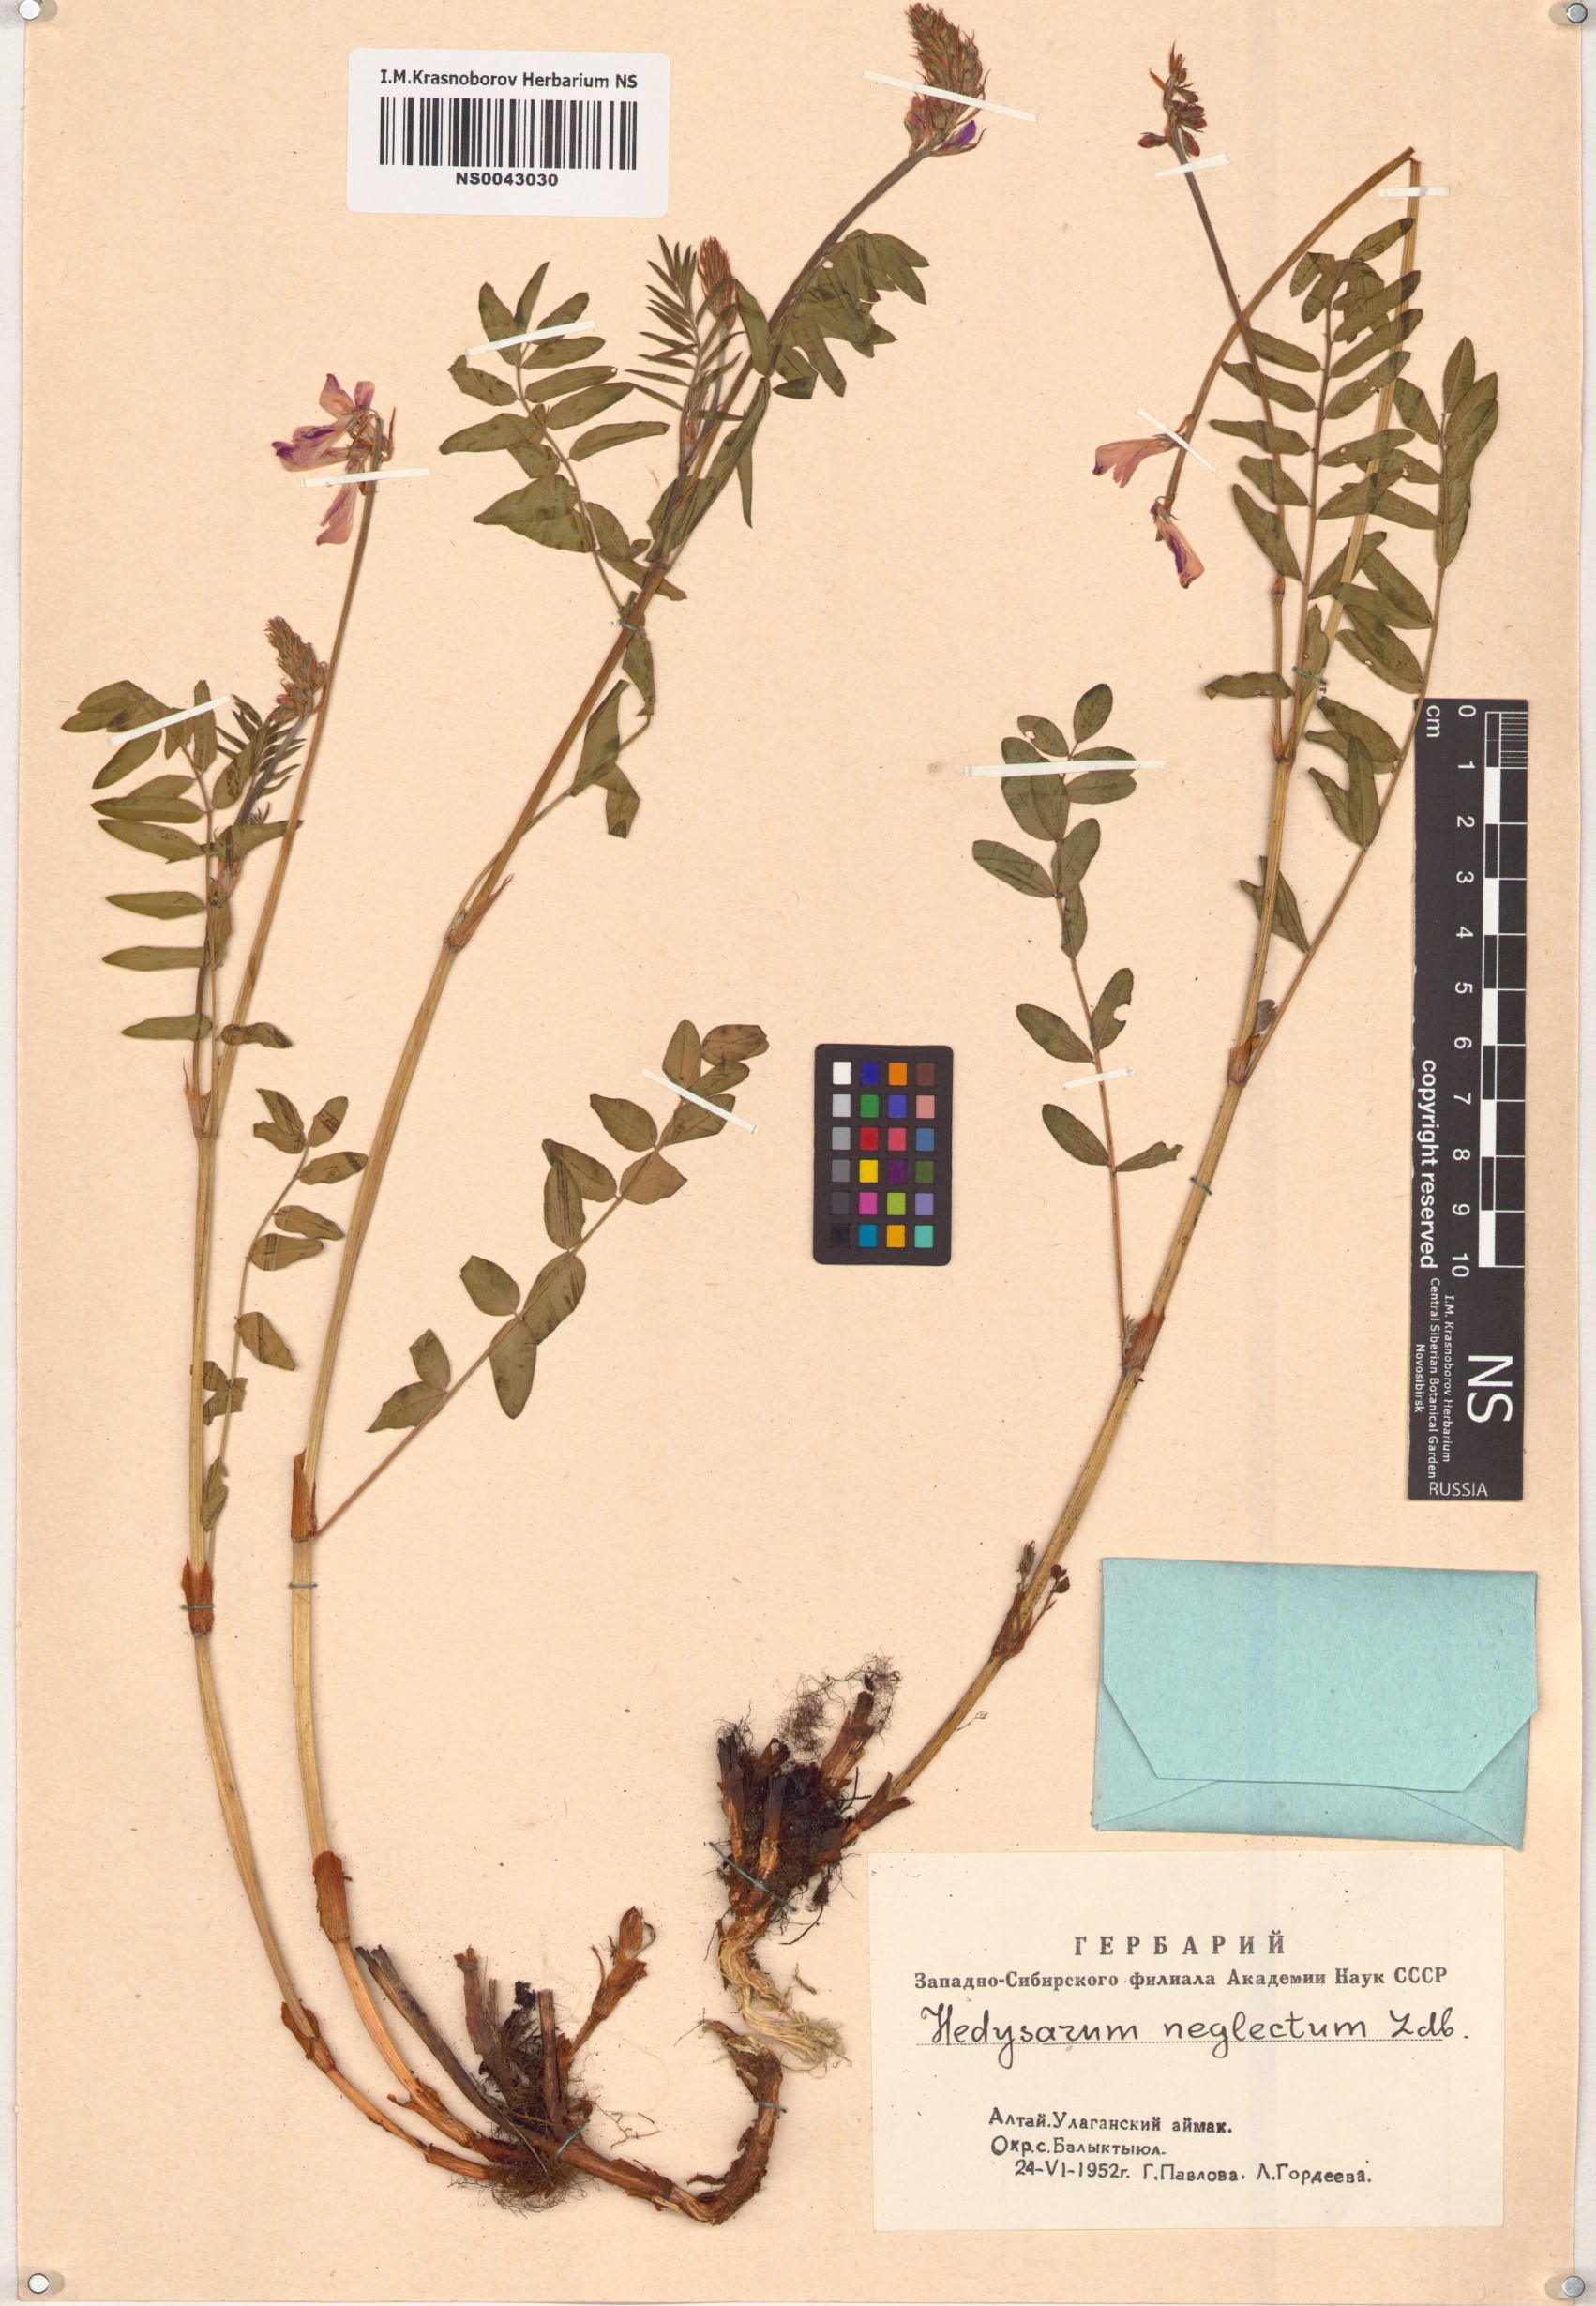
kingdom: Plantae
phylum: Tracheophyta
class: Magnoliopsida
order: Fabales
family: Fabaceae
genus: Hedysarum
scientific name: Hedysarum neglectum
